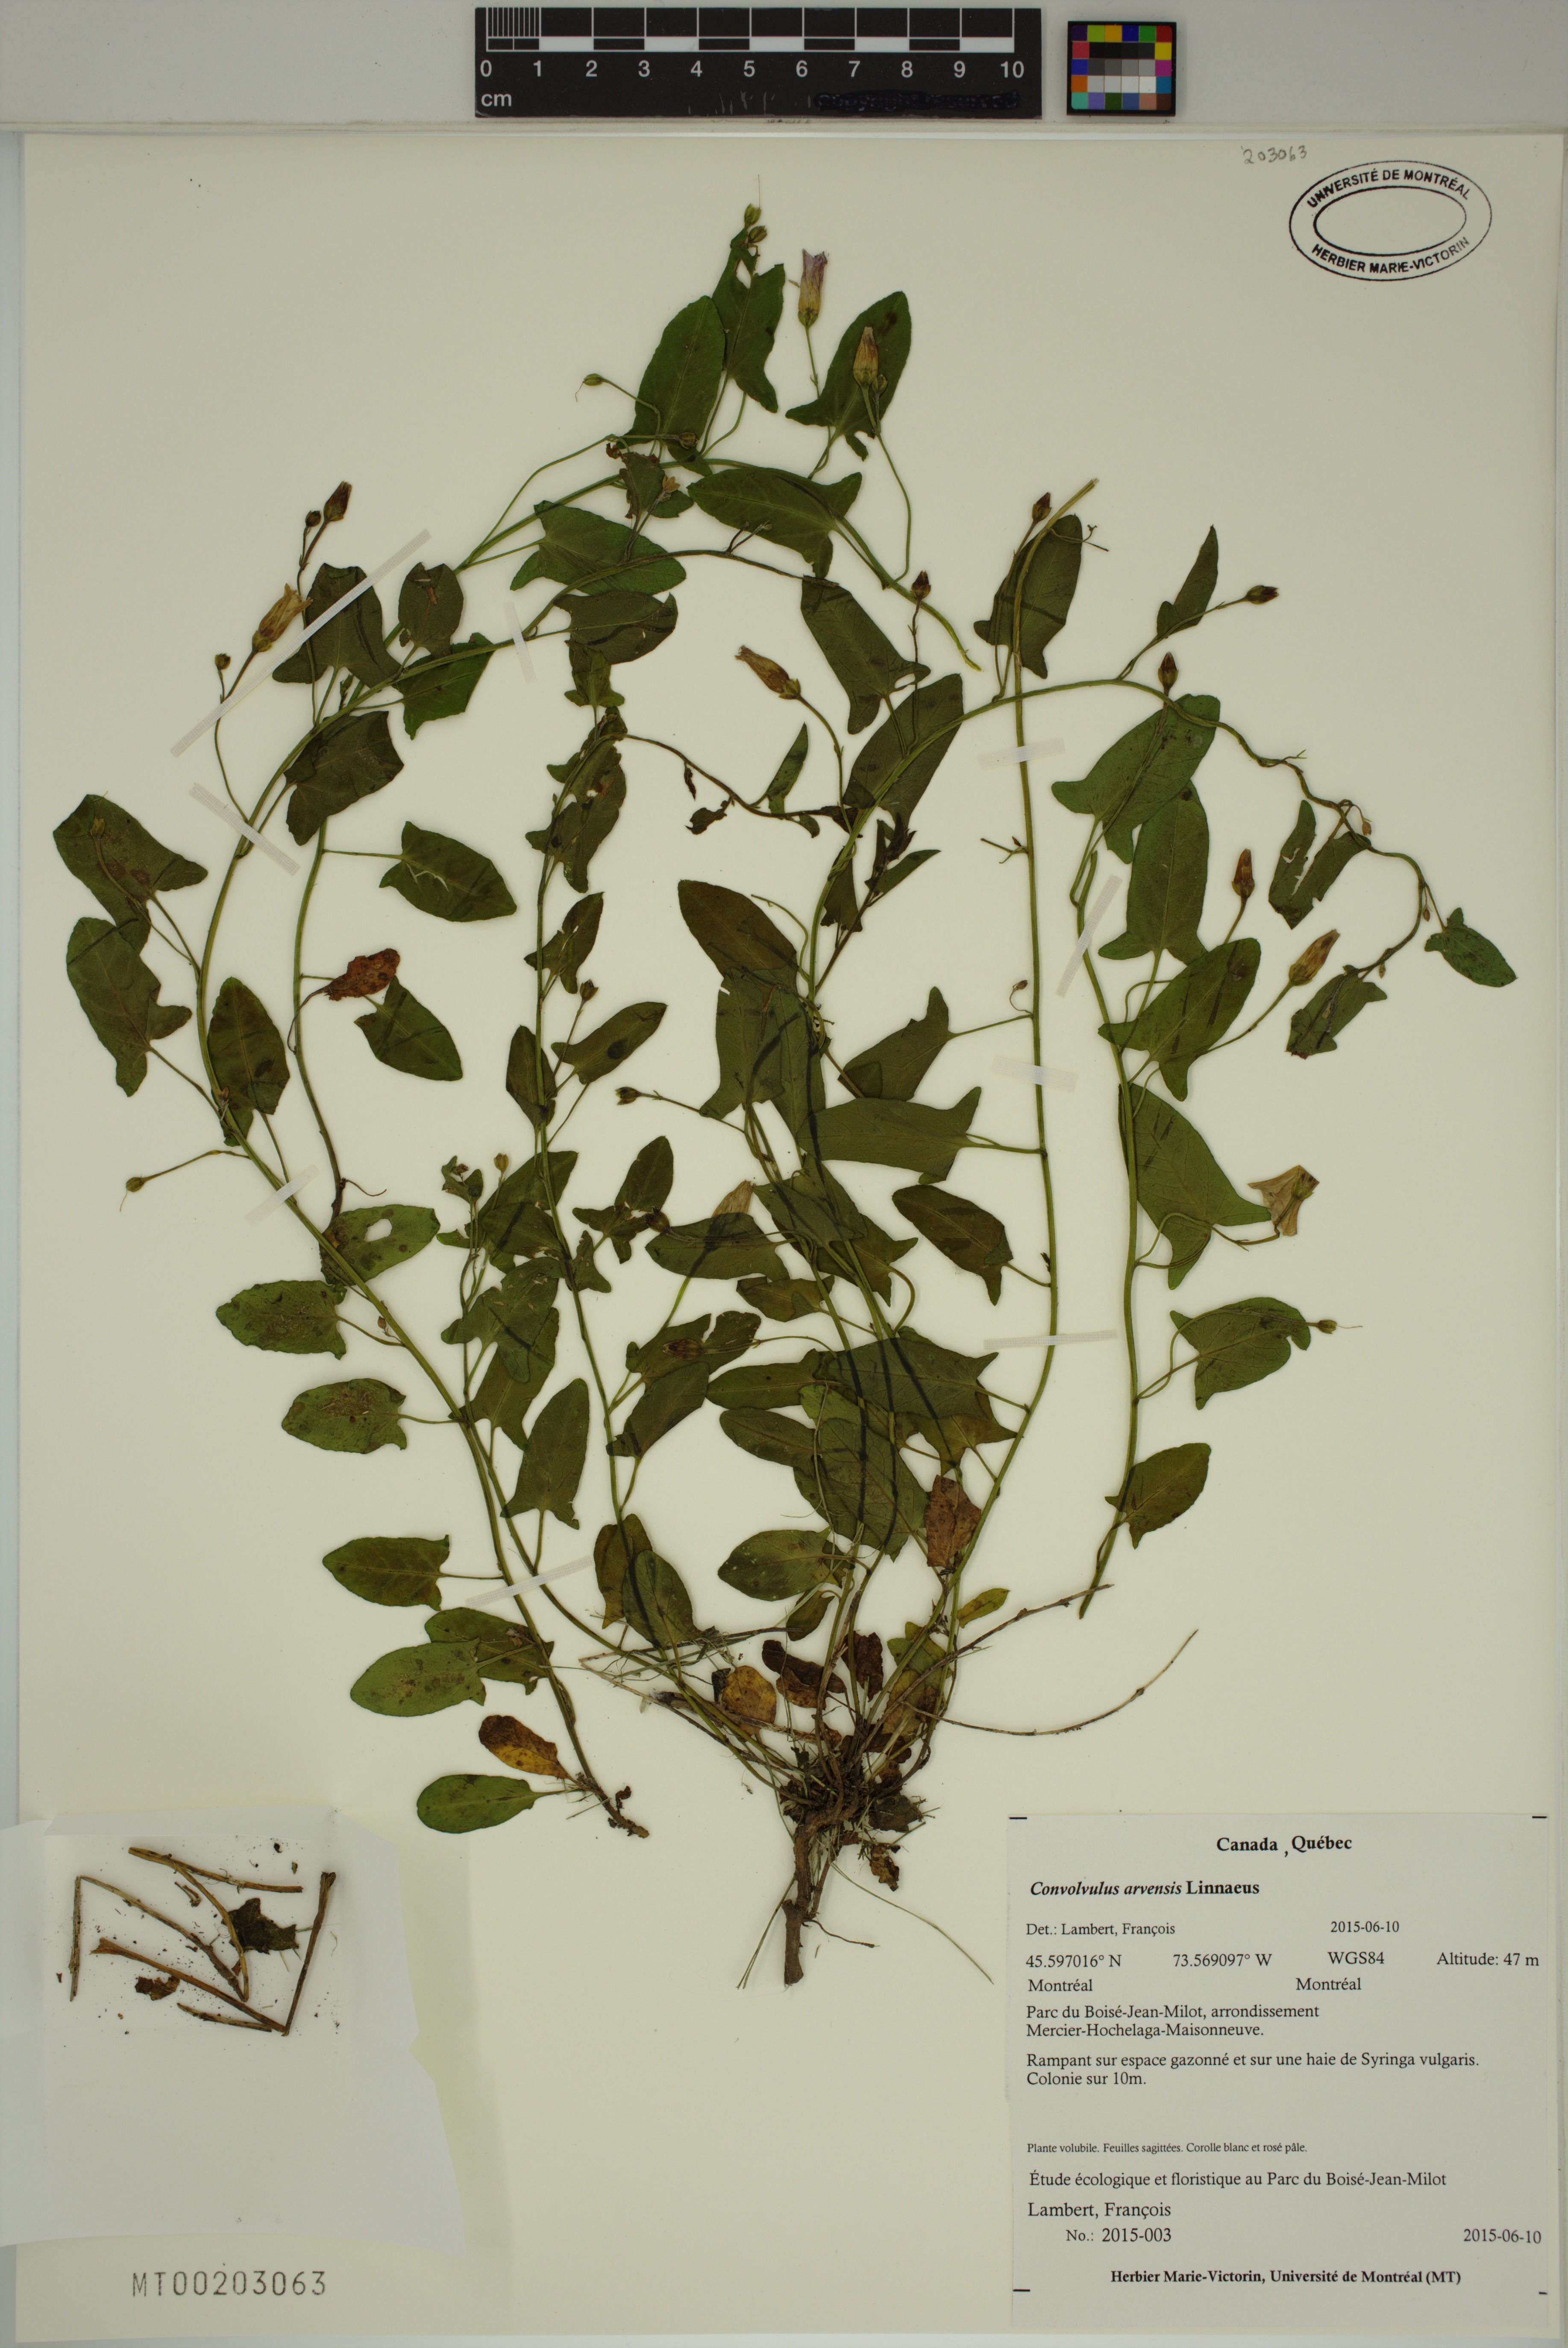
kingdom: Plantae
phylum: Tracheophyta
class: Magnoliopsida
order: Solanales
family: Convolvulaceae
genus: Convolvulus
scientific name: Convolvulus arvensis
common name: Field bindweed
